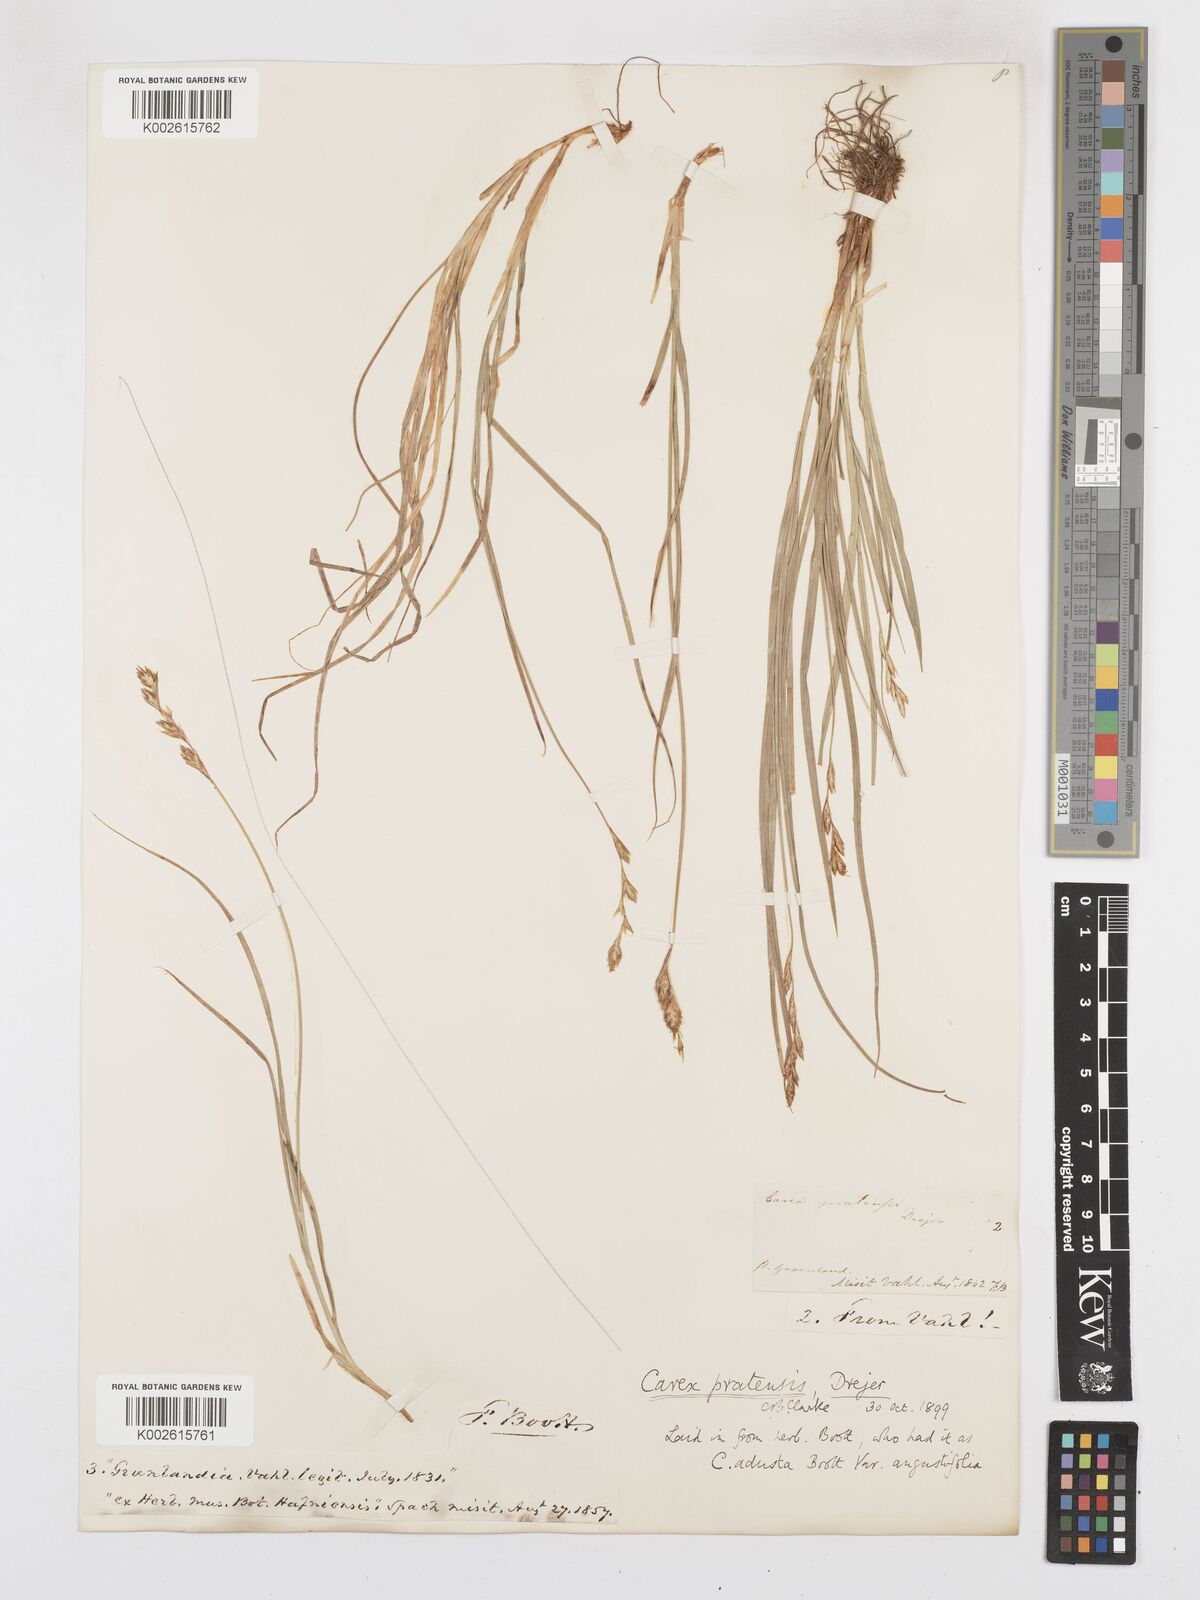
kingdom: Plantae
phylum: Tracheophyta
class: Liliopsida
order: Poales
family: Cyperaceae
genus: Carex
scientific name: Carex praticola
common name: Large-fruited oval sedge
